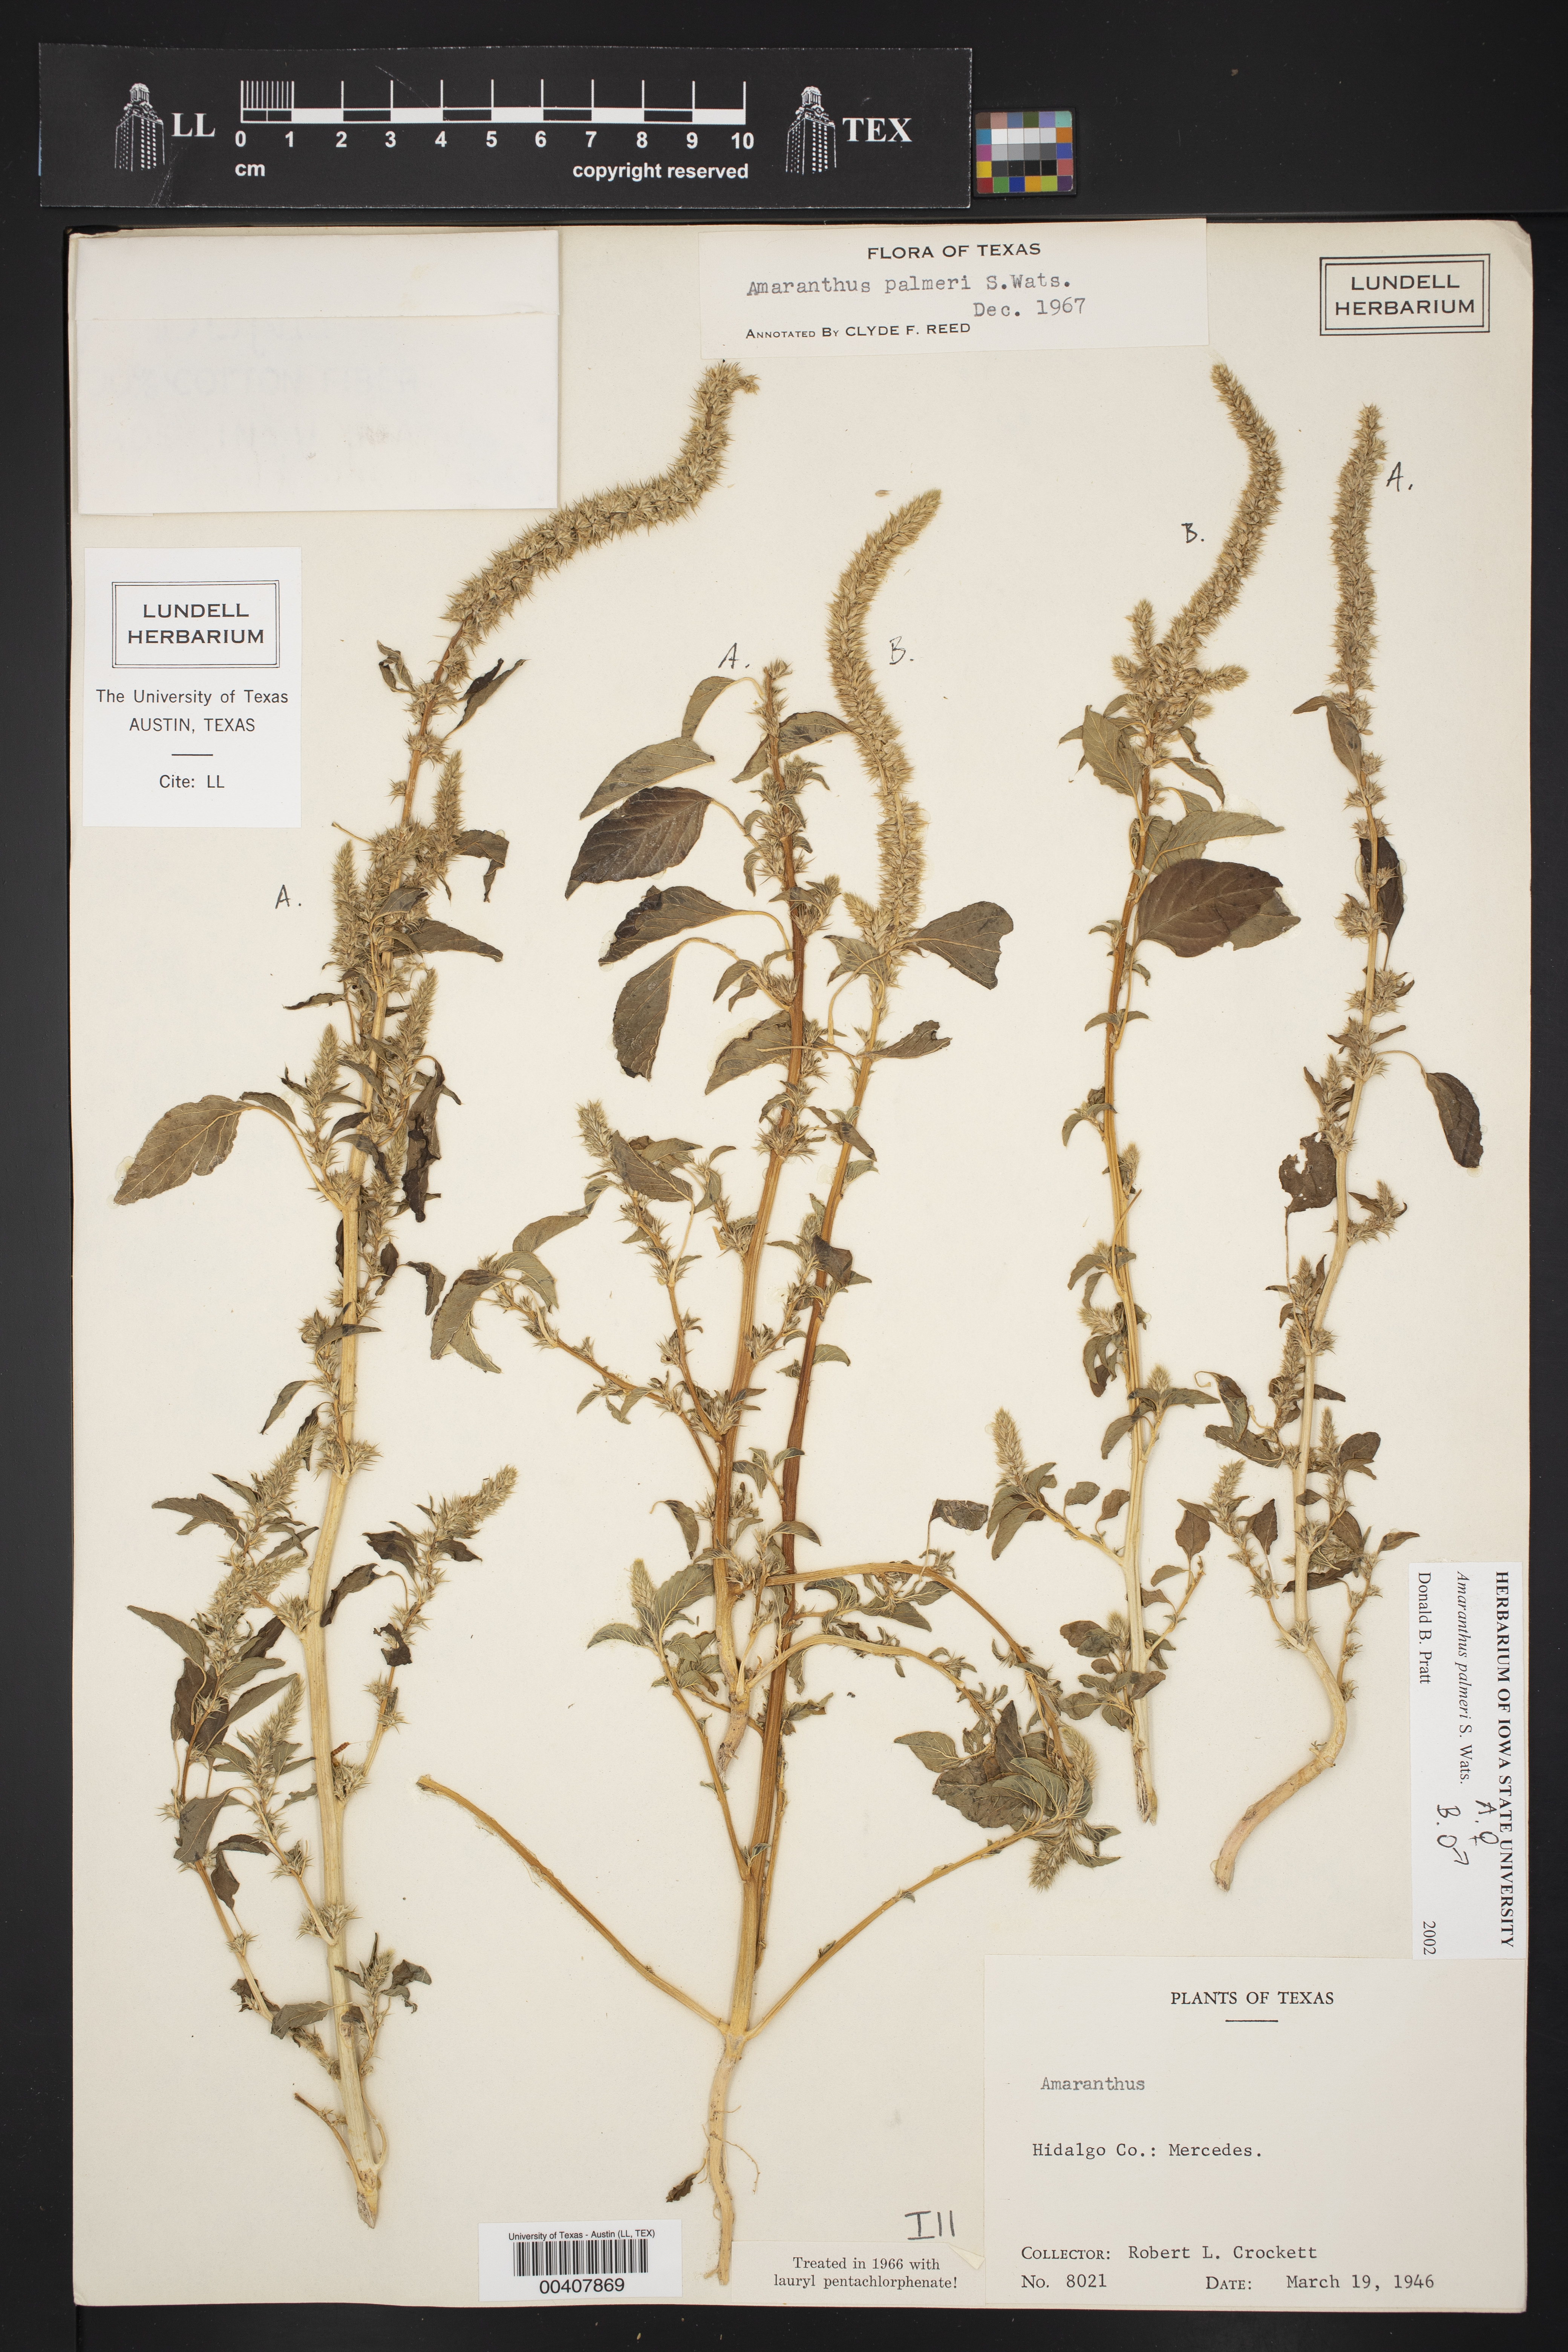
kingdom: Plantae
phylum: Tracheophyta
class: Magnoliopsida
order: Caryophyllales
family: Amaranthaceae
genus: Amaranthus
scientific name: Amaranthus palmeri
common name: Dioecious amaranth
